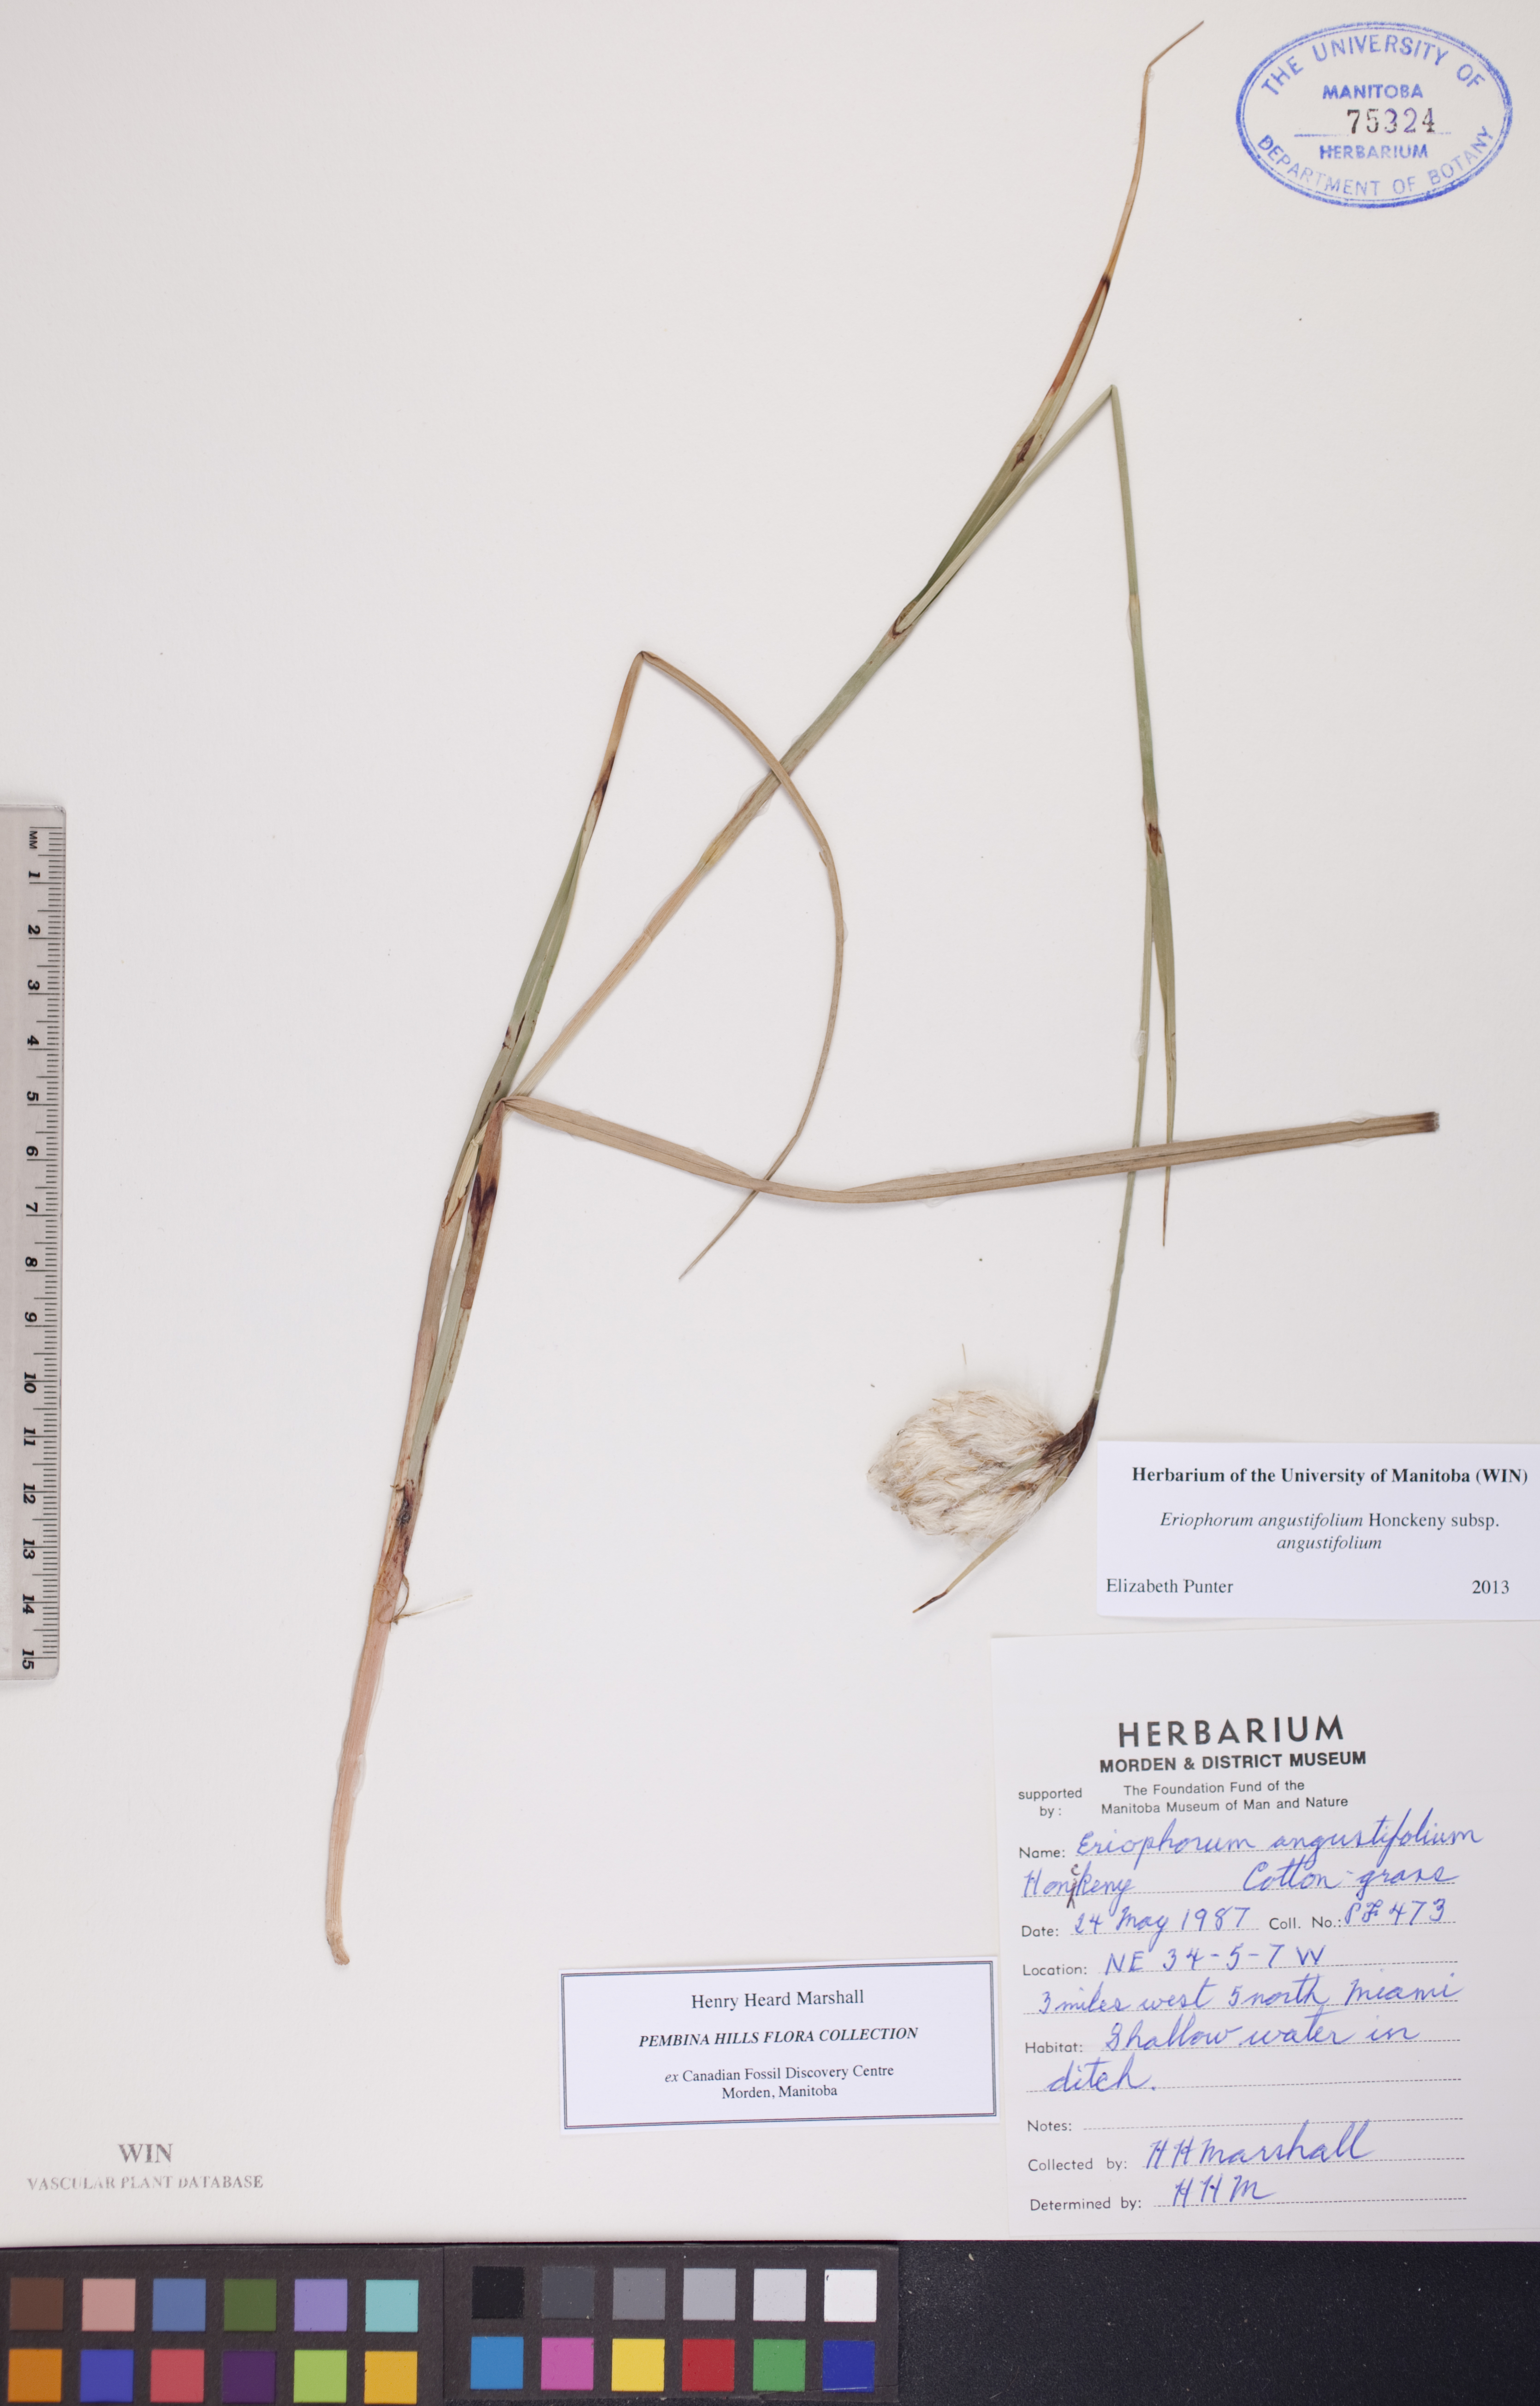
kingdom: Plantae
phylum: Tracheophyta
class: Liliopsida
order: Poales
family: Cyperaceae
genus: Eriophorum
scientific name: Eriophorum angustifolium
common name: Common cottongrass
